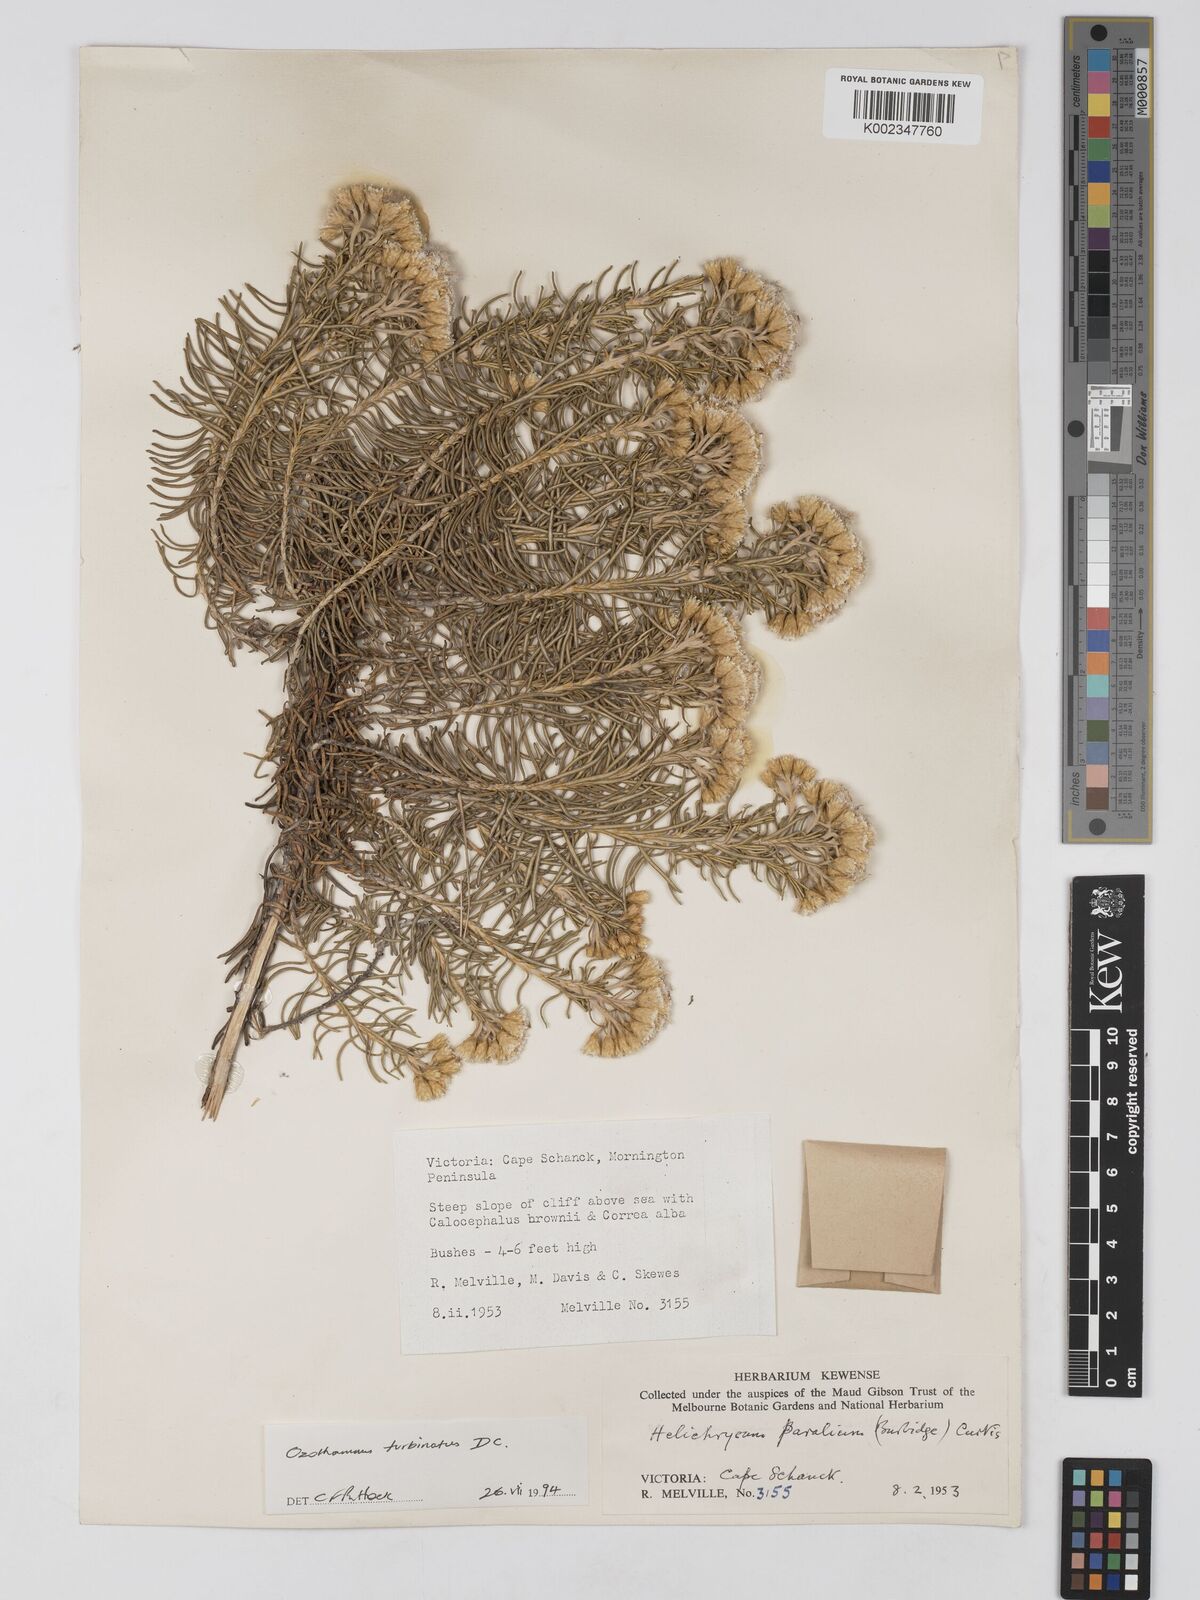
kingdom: Plantae
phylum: Tracheophyta
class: Magnoliopsida
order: Asterales
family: Asteraceae
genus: Ozothamnus
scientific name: Ozothamnus cinereus
